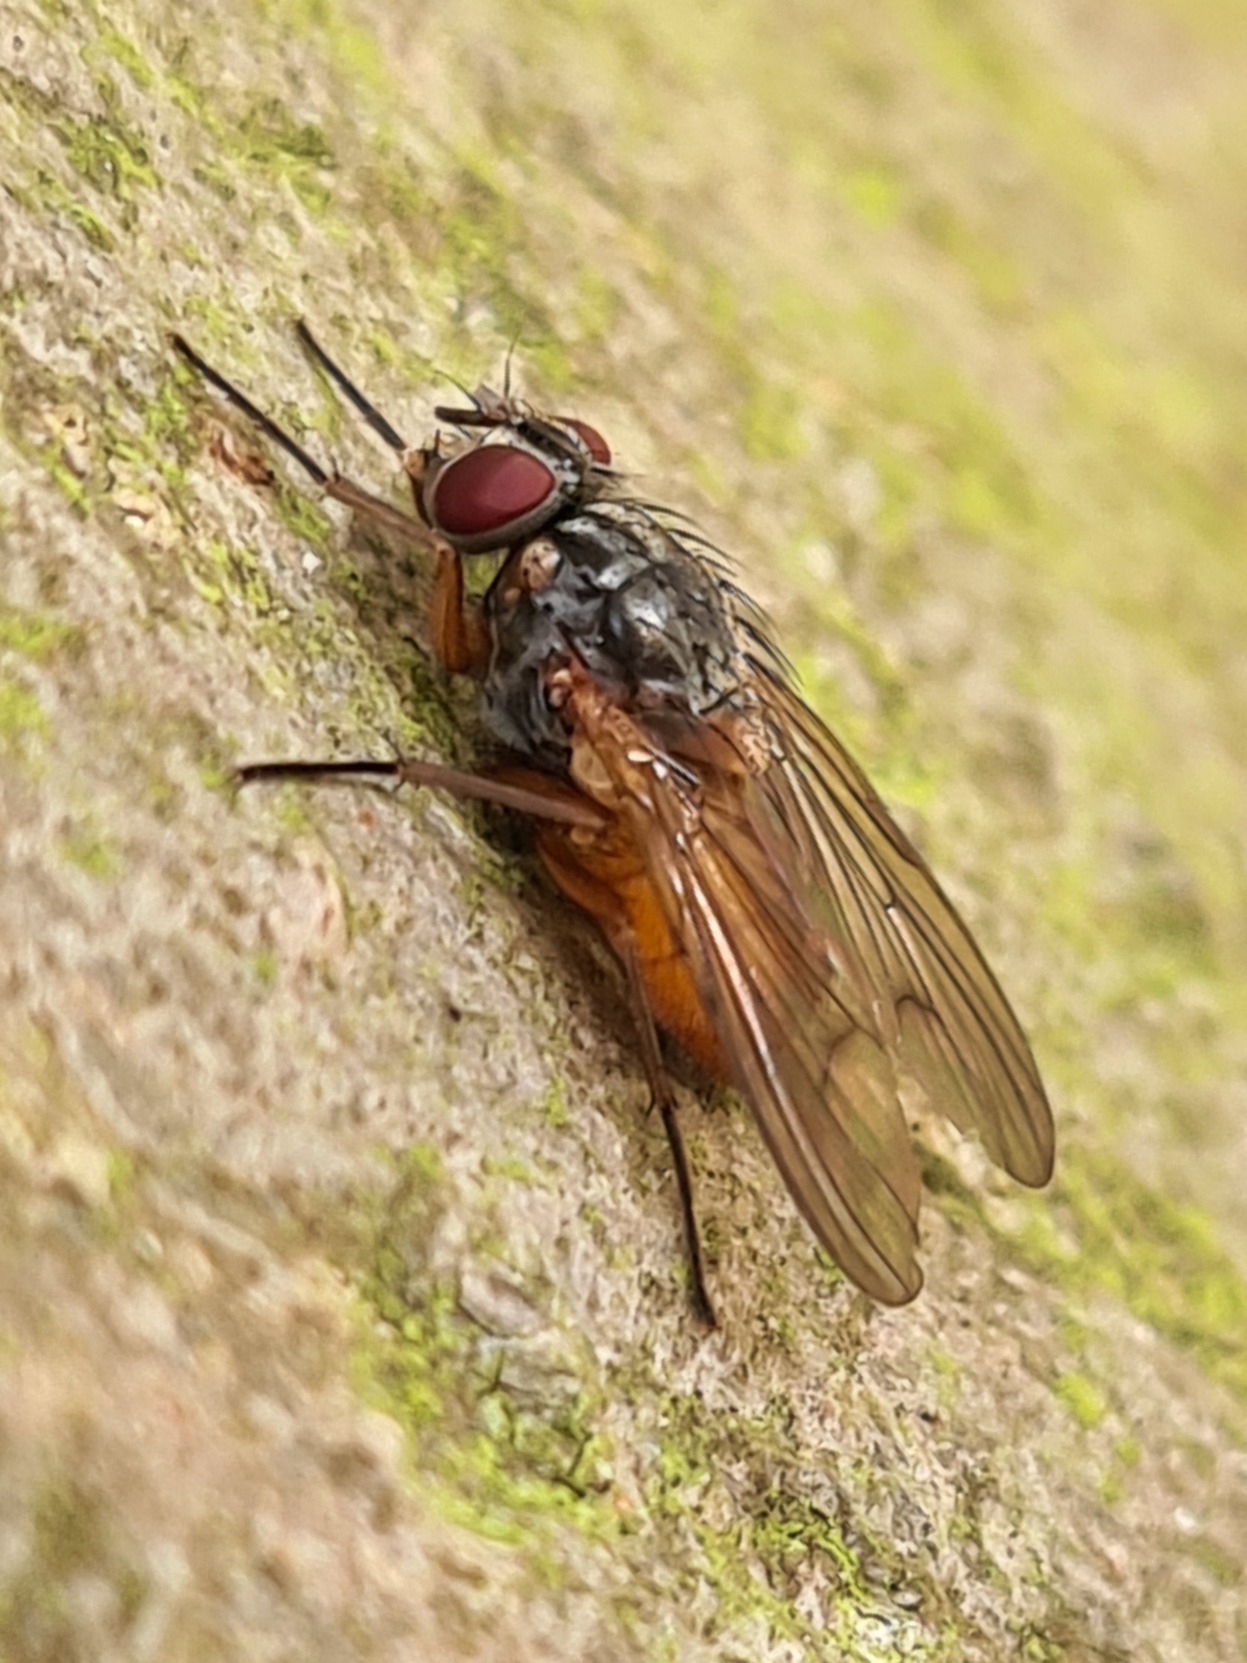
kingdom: Animalia
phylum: Arthropoda
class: Insecta
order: Diptera
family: Muscidae
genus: Phaonia
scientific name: Phaonia subventa
